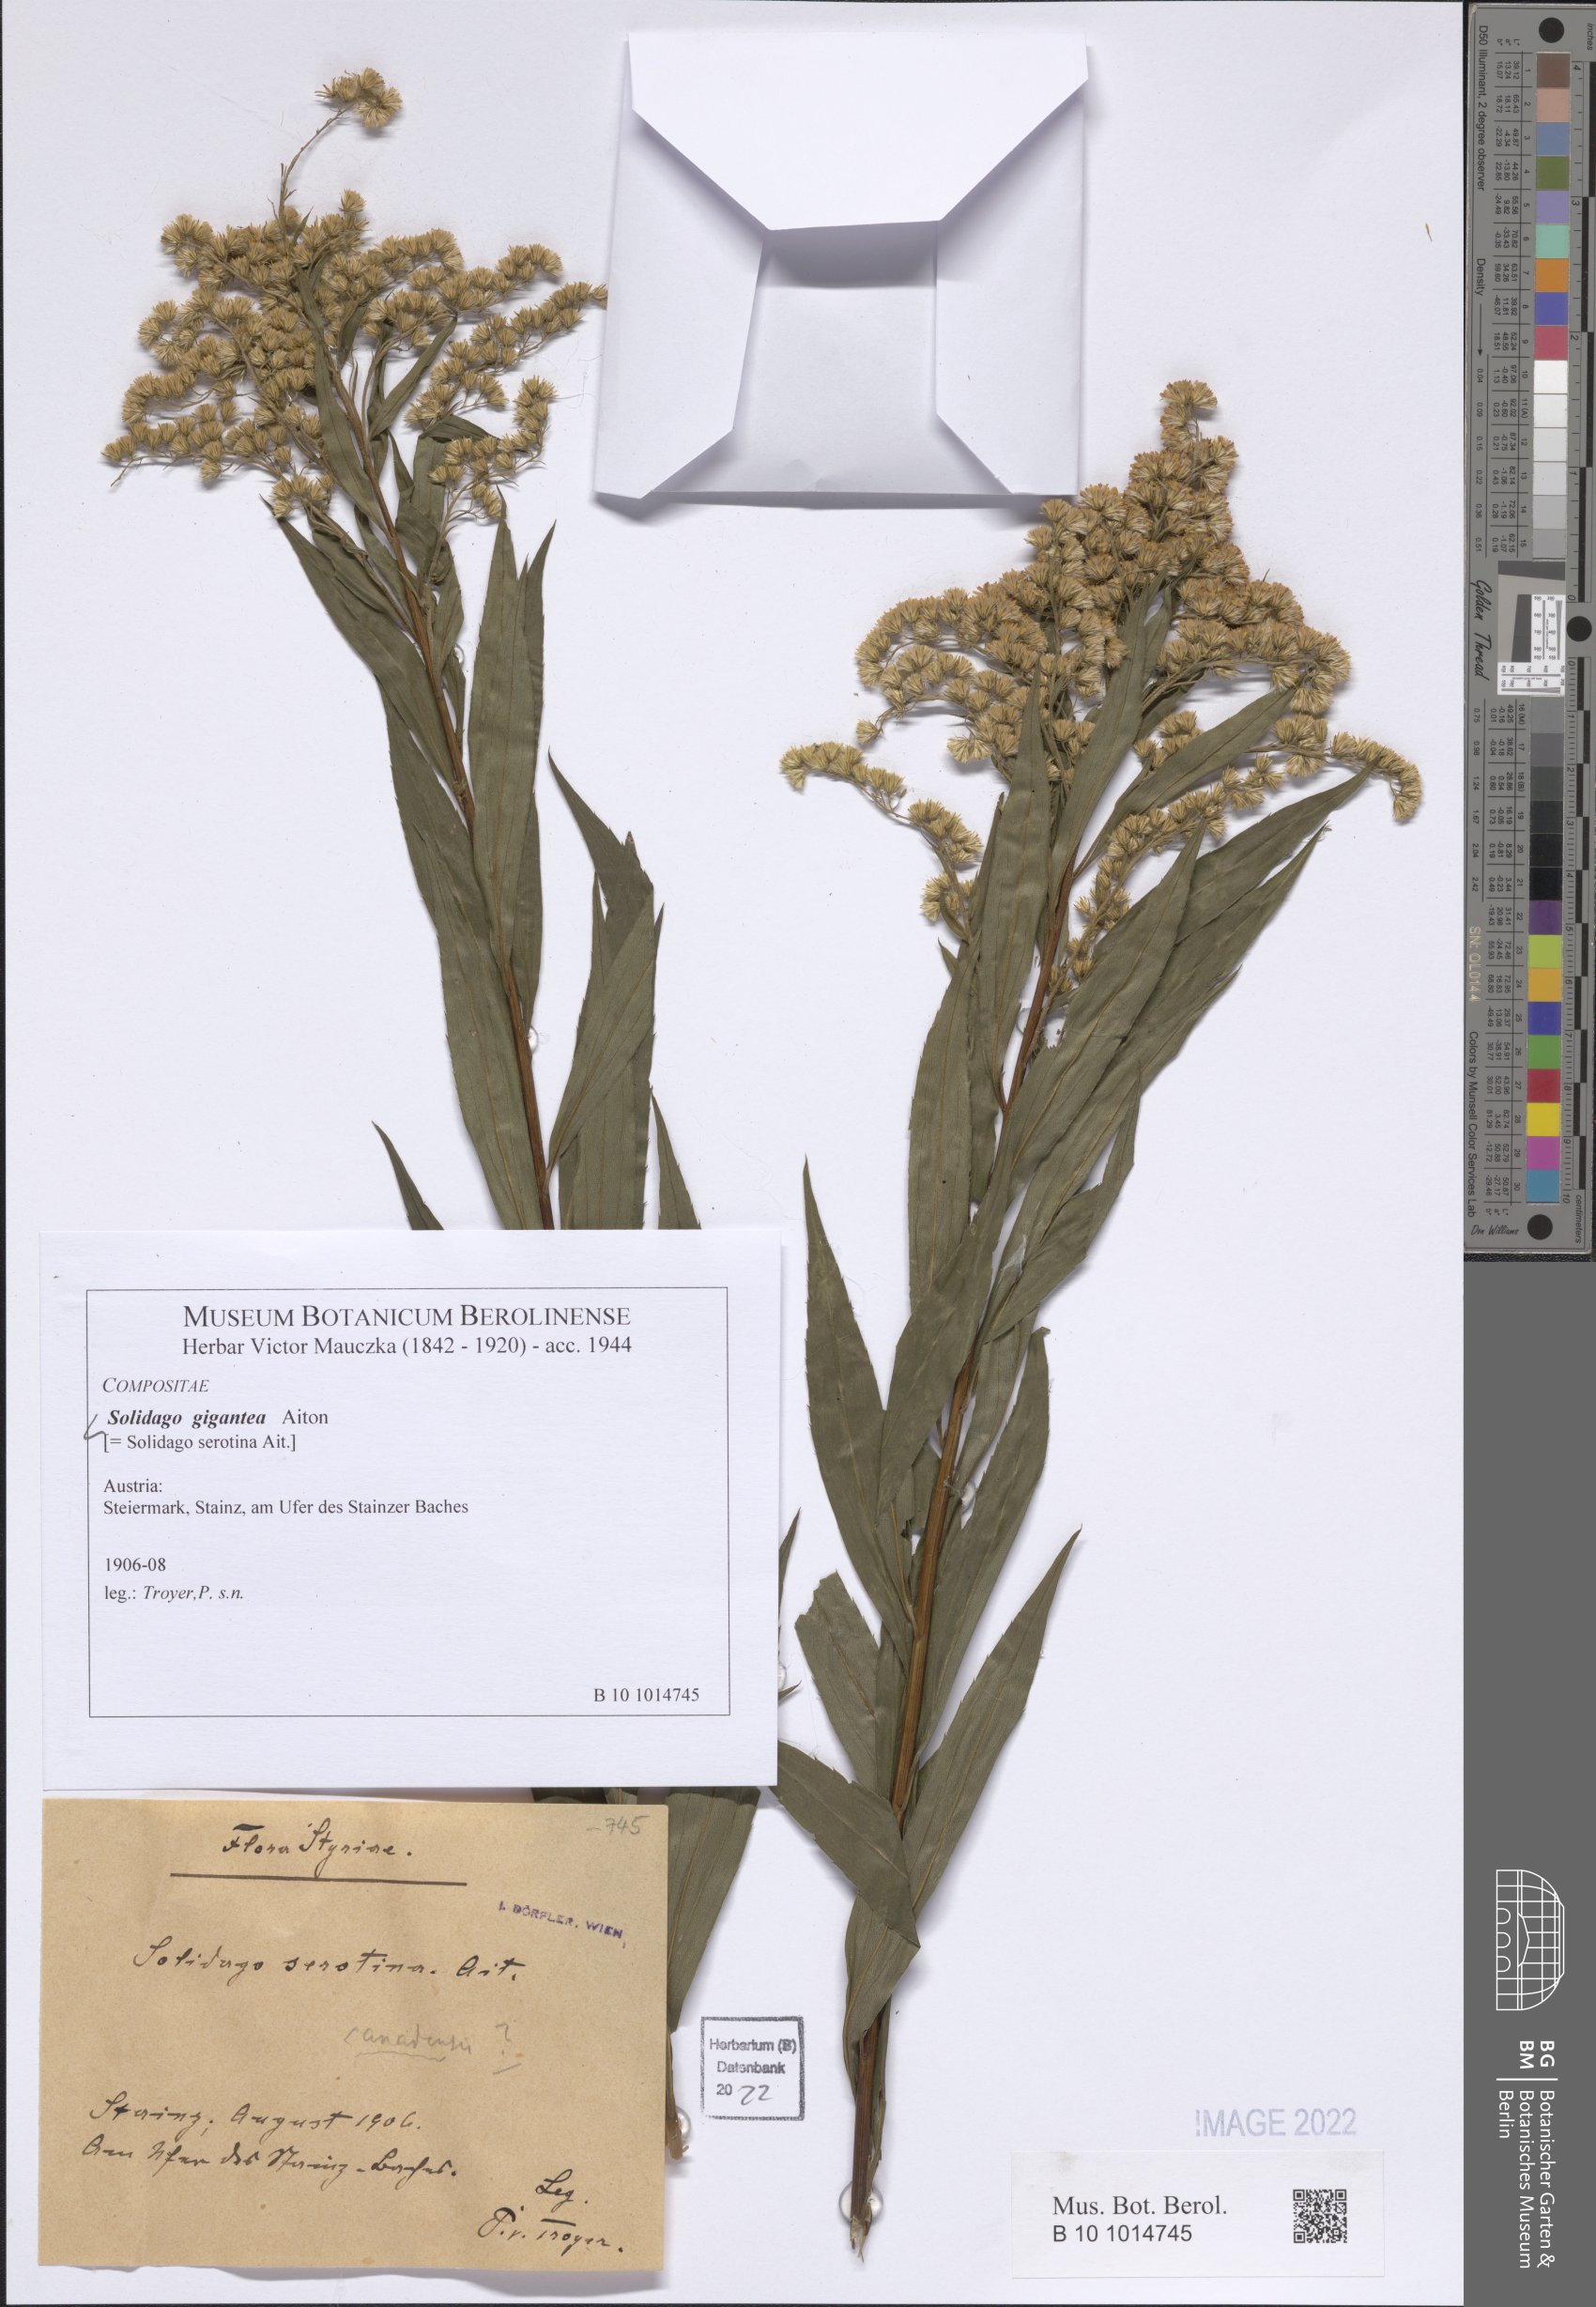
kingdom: Plantae
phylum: Tracheophyta
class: Magnoliopsida
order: Asterales
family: Asteraceae
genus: Solidago
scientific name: Solidago gigantea
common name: Giant goldenrod
